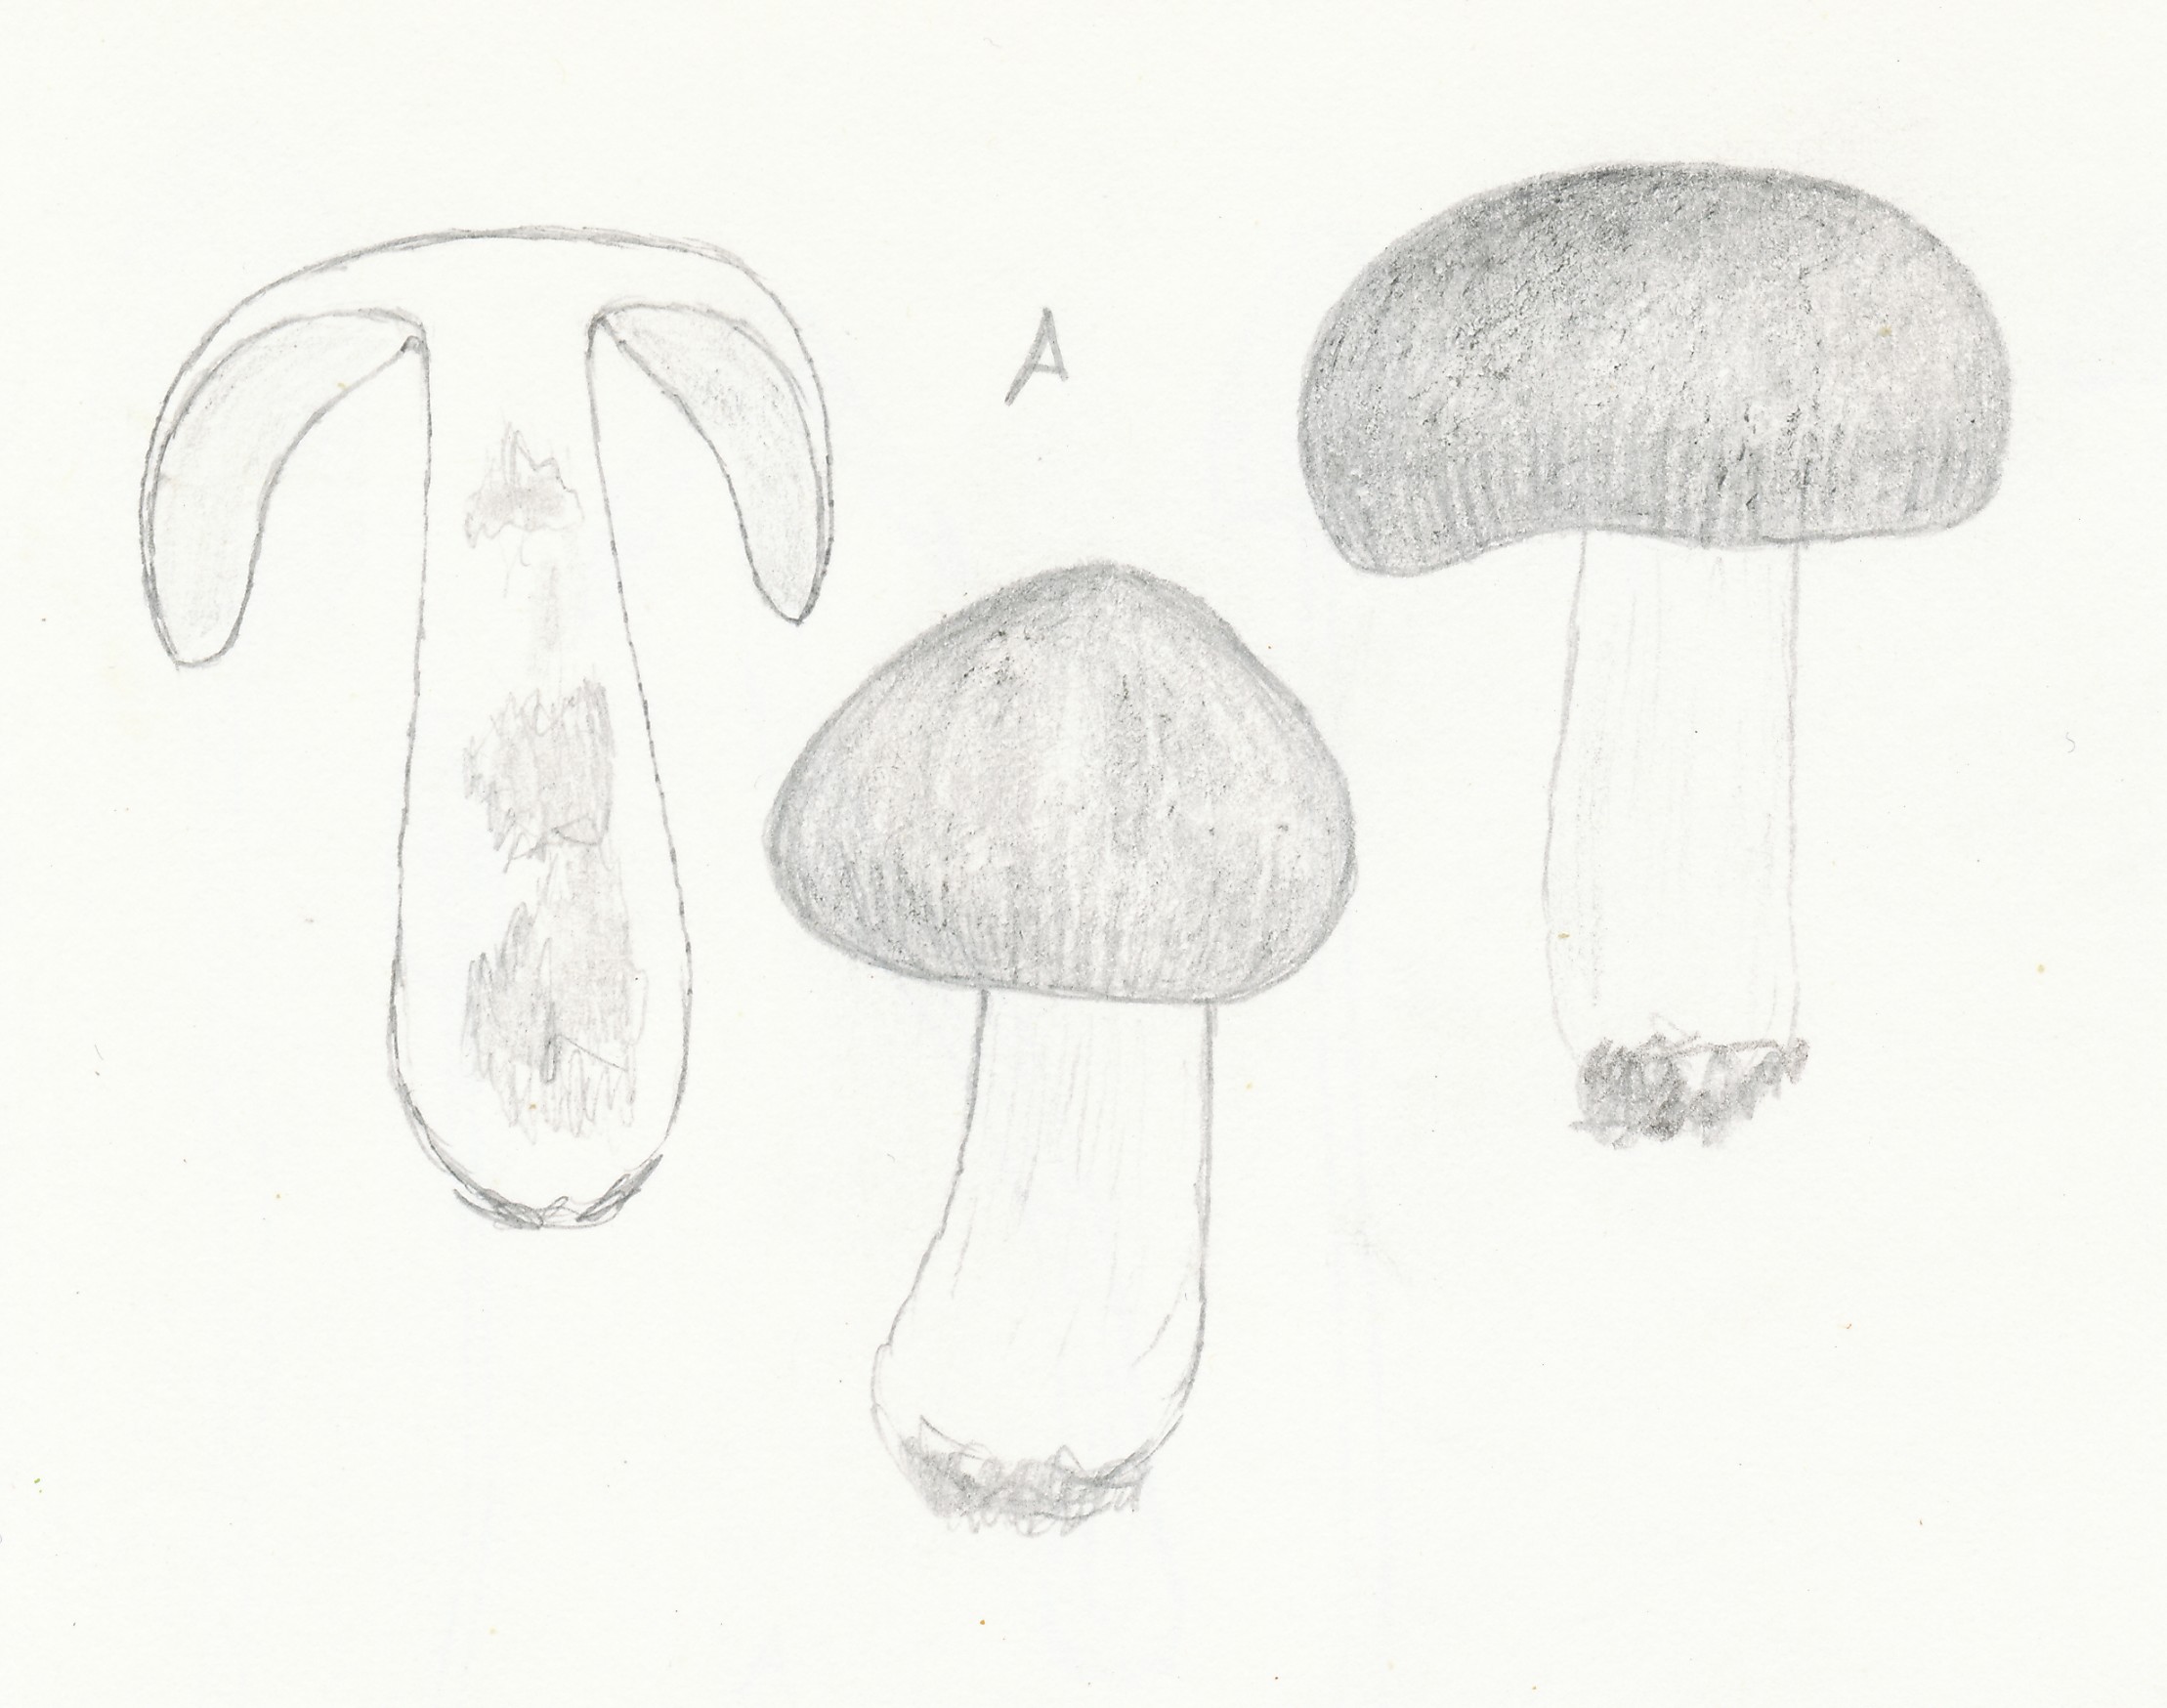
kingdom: Fungi
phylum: Basidiomycota
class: Agaricomycetes
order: Russulales
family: Russulaceae
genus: Russula
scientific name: Russula nauseosa
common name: spinkel skørhat
